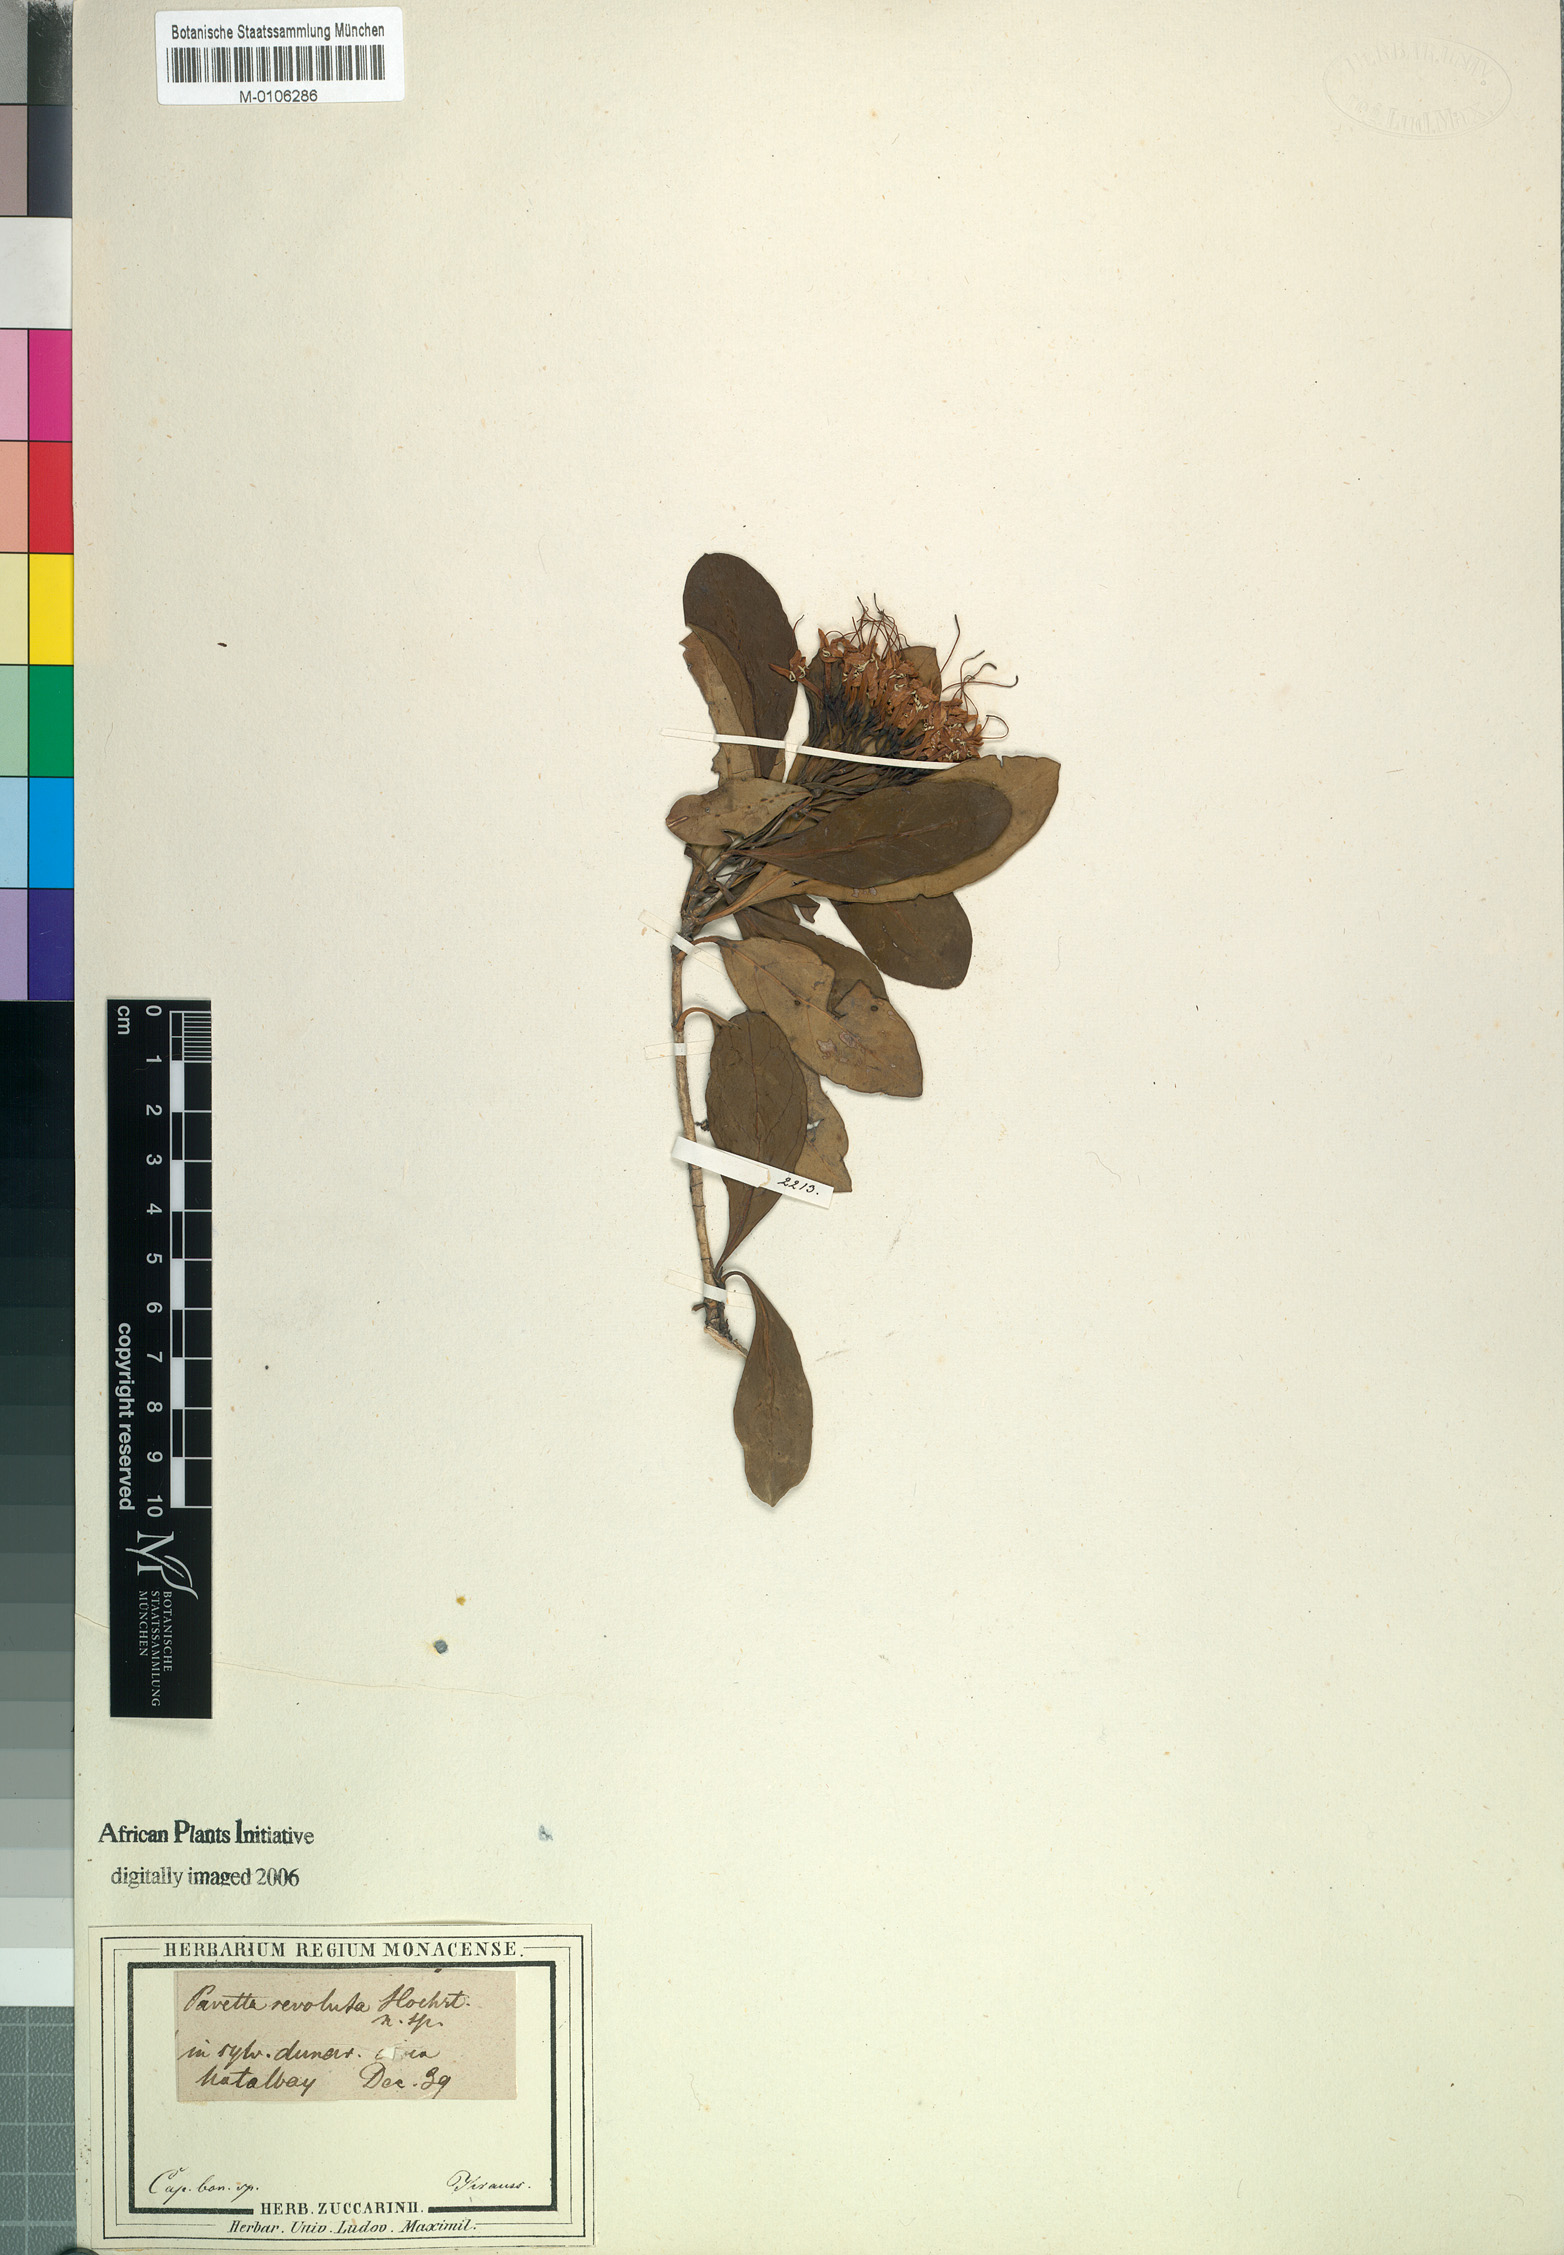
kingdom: Plantae
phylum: Tracheophyta
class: Magnoliopsida
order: Gentianales
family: Rubiaceae
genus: Pavetta
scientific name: Pavetta revoluta
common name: Dune brides-bush
